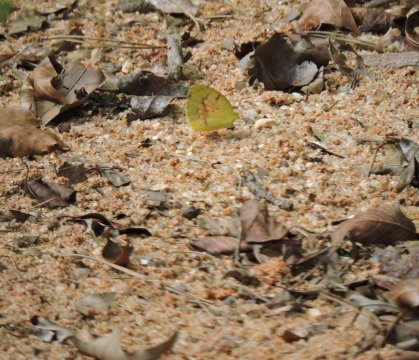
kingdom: Animalia
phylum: Arthropoda
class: Insecta
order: Lepidoptera
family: Pieridae
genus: Abaeis
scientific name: Abaeis nicippe
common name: Sleepy Orange
